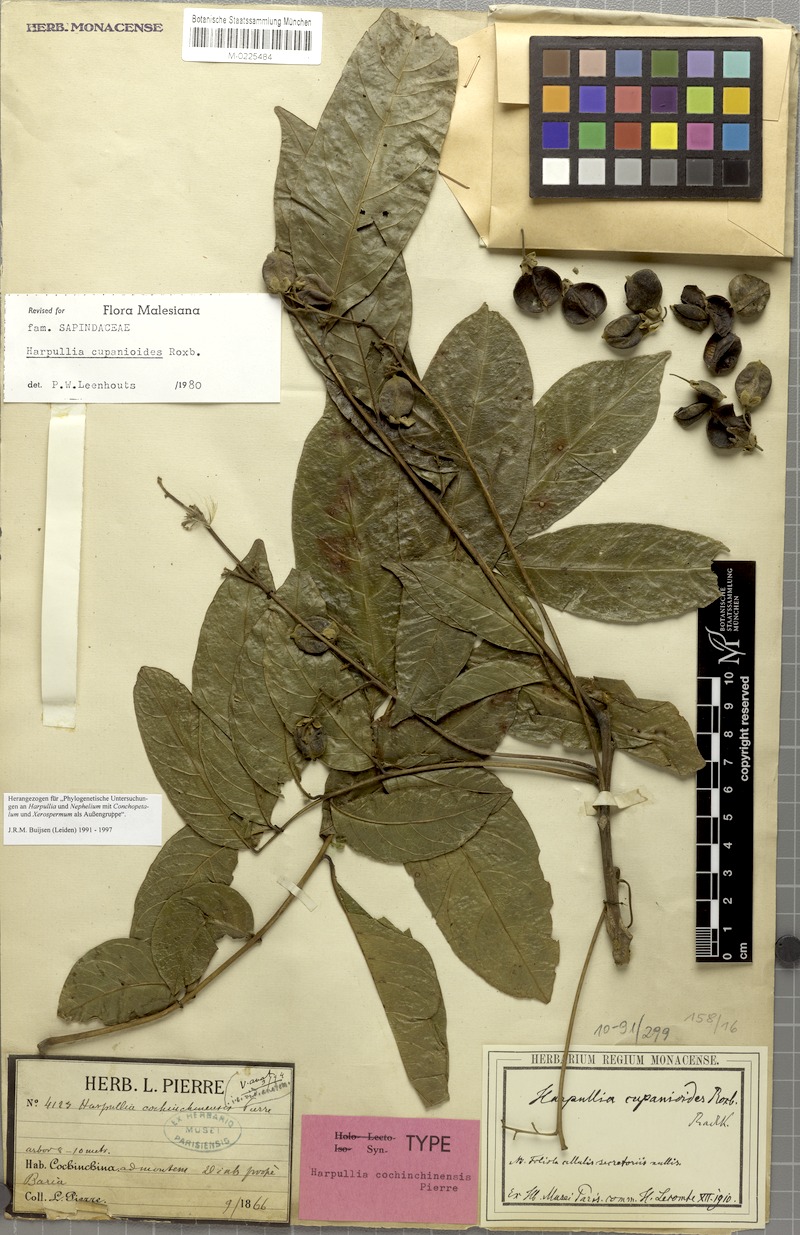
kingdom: Plantae
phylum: Tracheophyta
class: Magnoliopsida
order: Sapindales
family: Sapindaceae
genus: Harpullia
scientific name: Harpullia cupanioides
